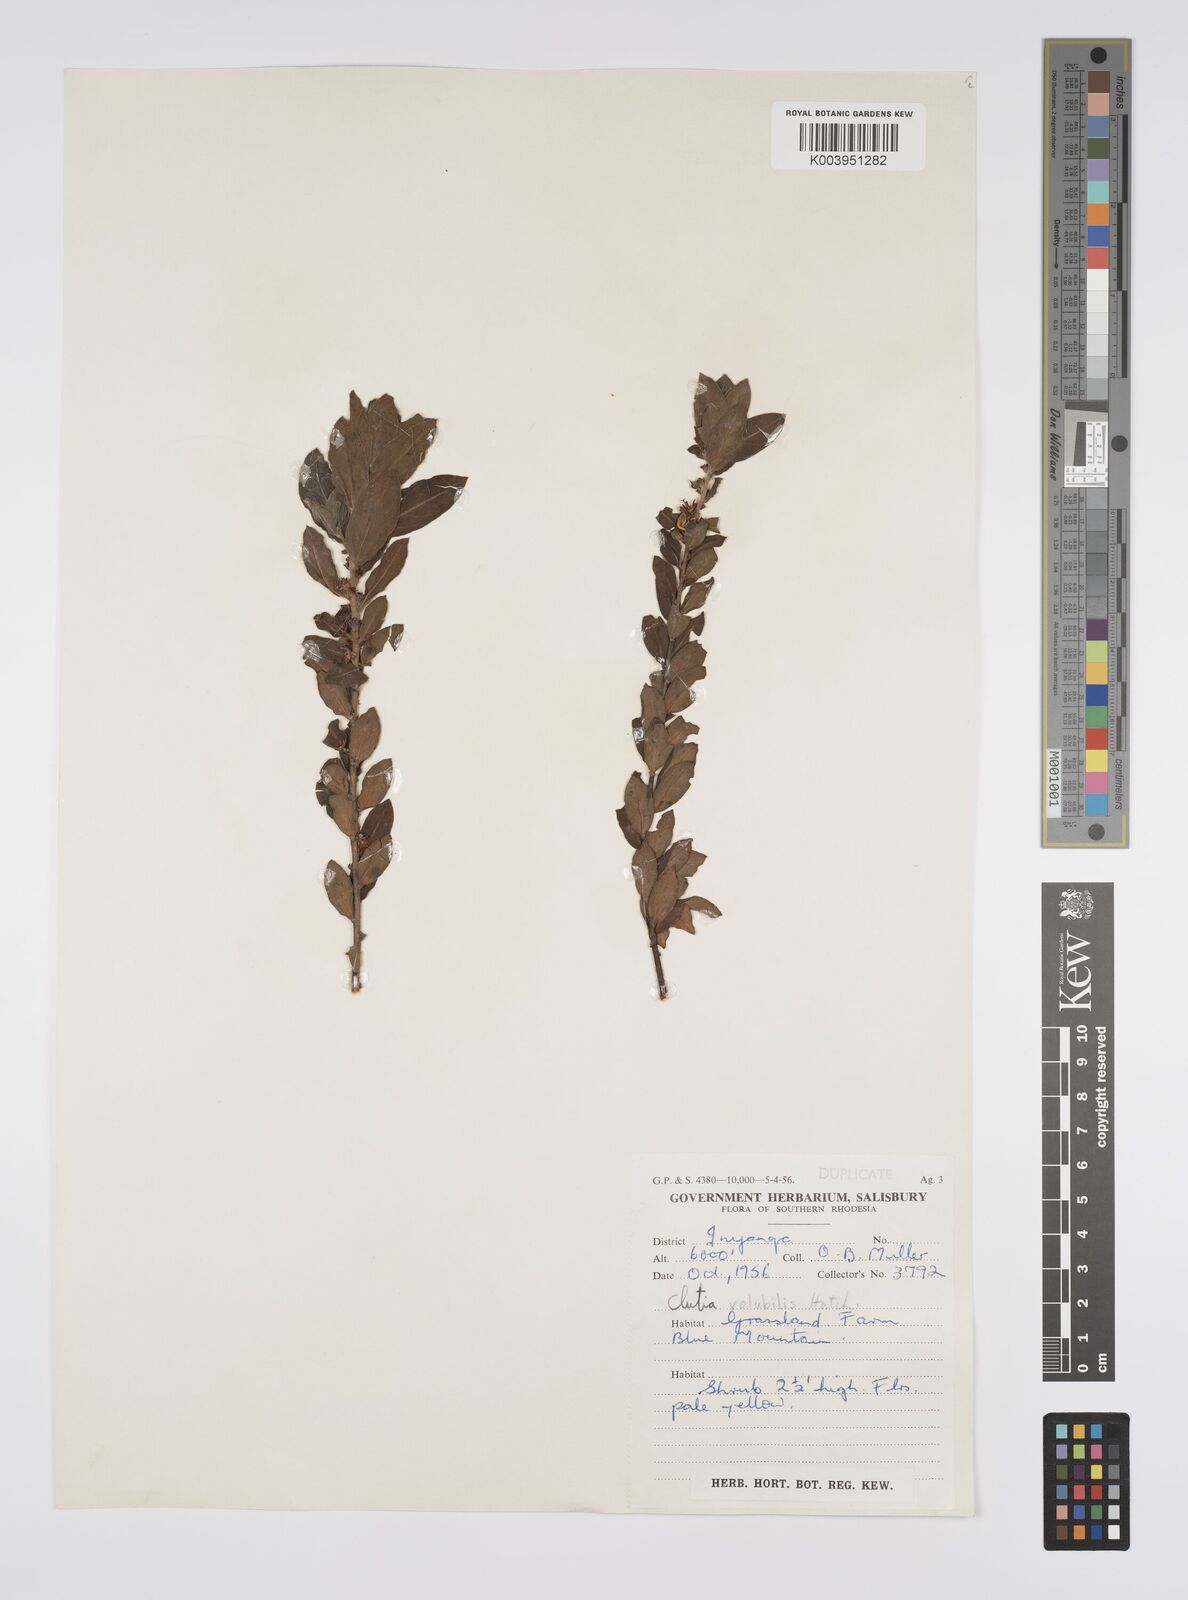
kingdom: Plantae
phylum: Tracheophyta
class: Magnoliopsida
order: Malpighiales
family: Peraceae
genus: Clutia
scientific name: Clutia
